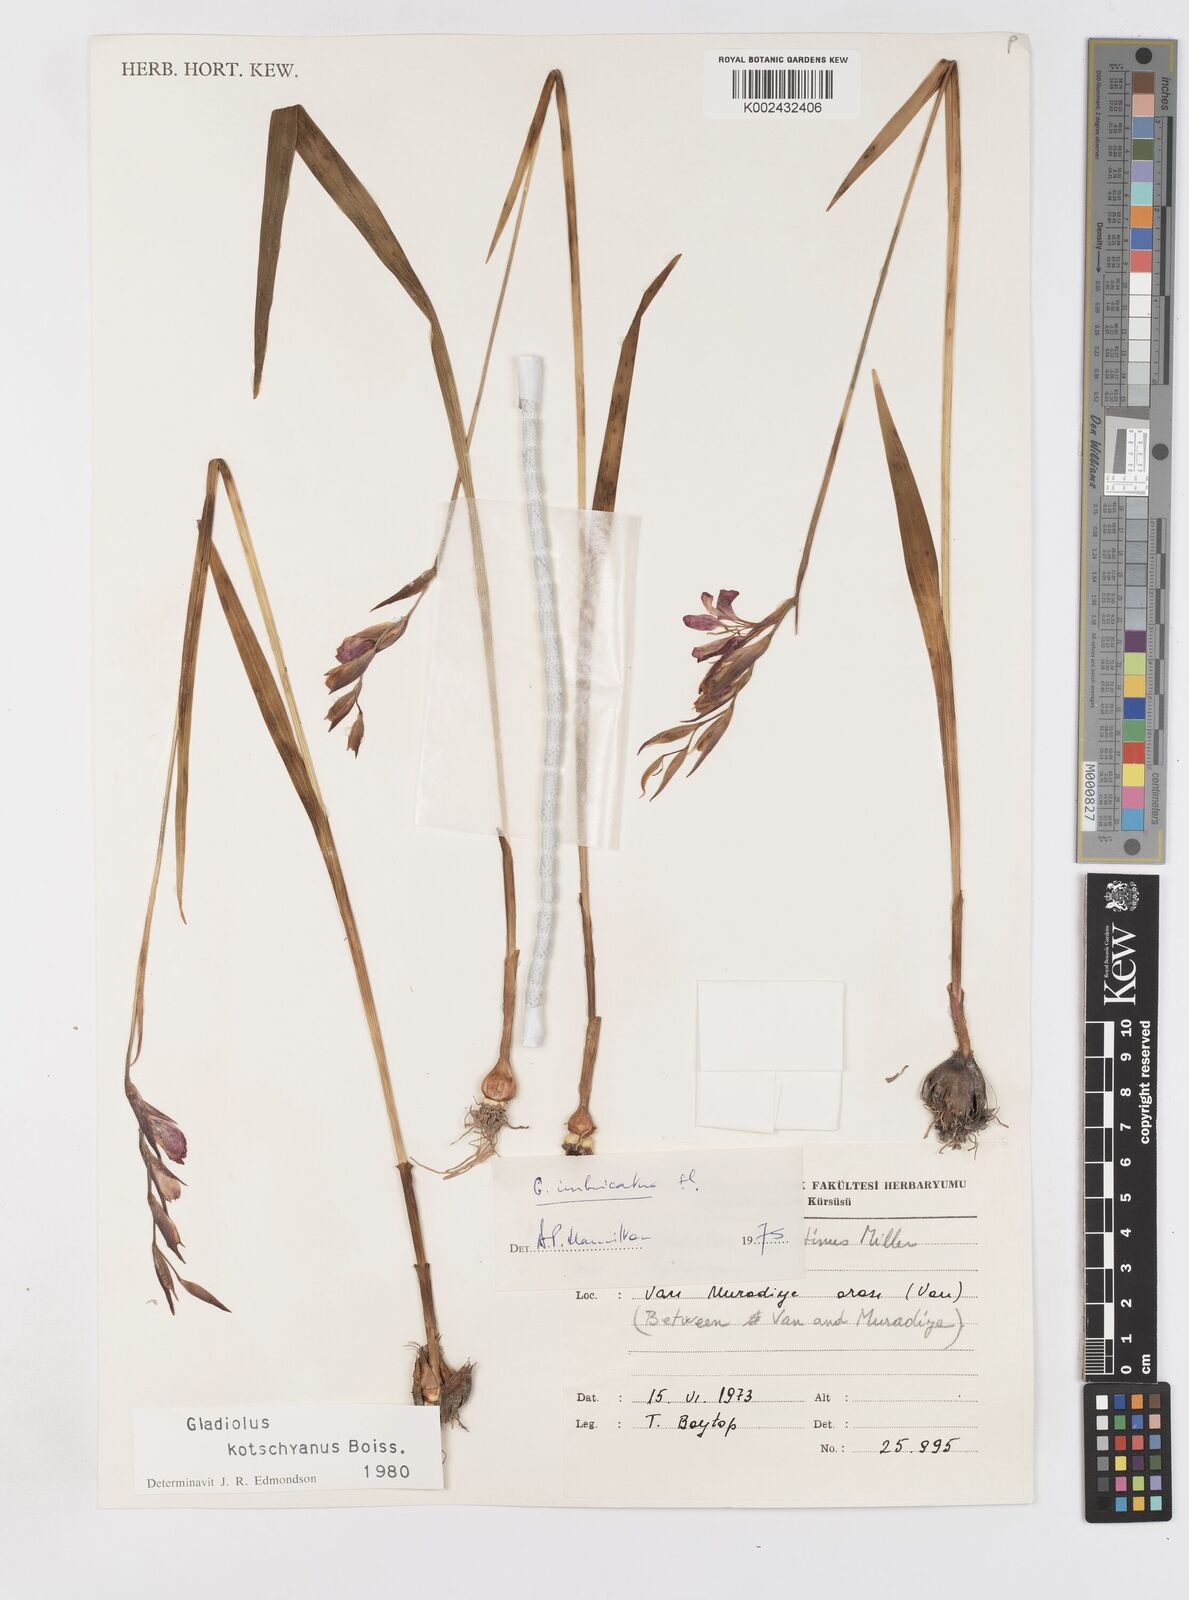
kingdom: Plantae
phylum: Tracheophyta
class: Liliopsida
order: Asparagales
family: Iridaceae
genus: Gladiolus
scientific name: Gladiolus kotschyanus
